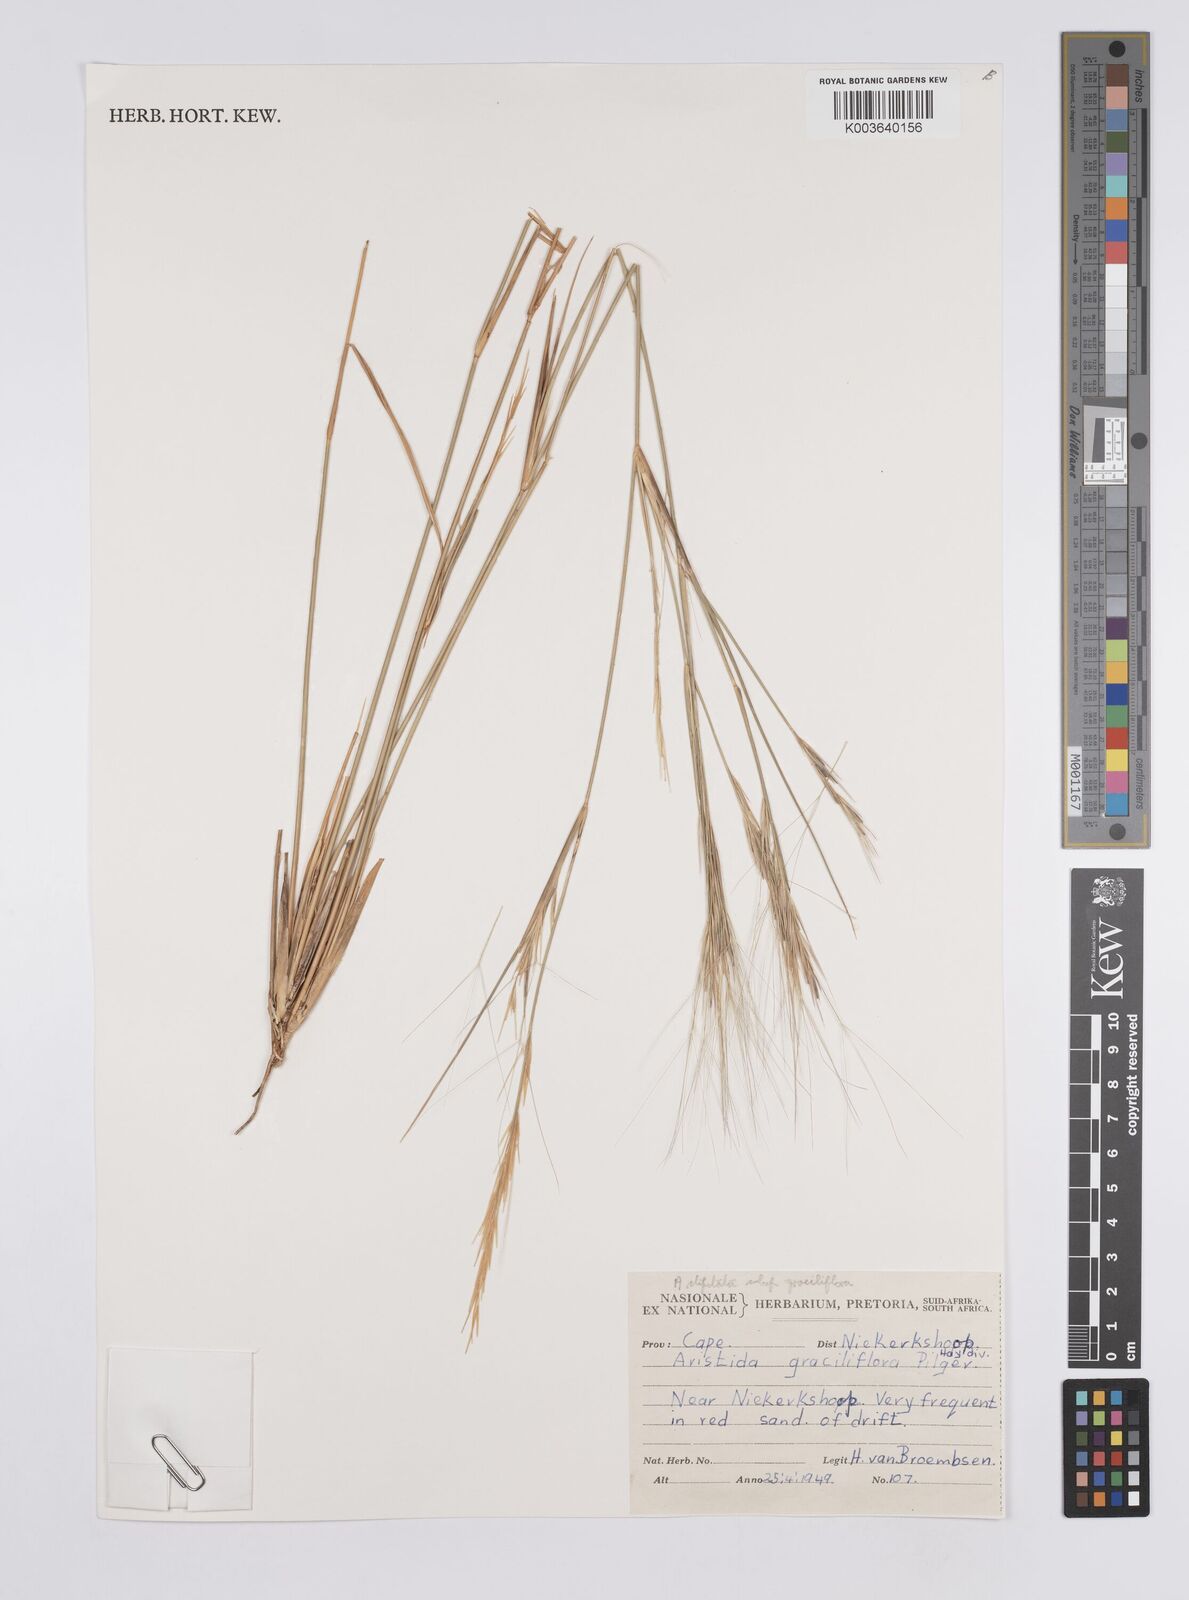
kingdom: Plantae
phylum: Tracheophyta
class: Liliopsida
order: Poales
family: Poaceae
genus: Aristida
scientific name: Aristida stipitata
